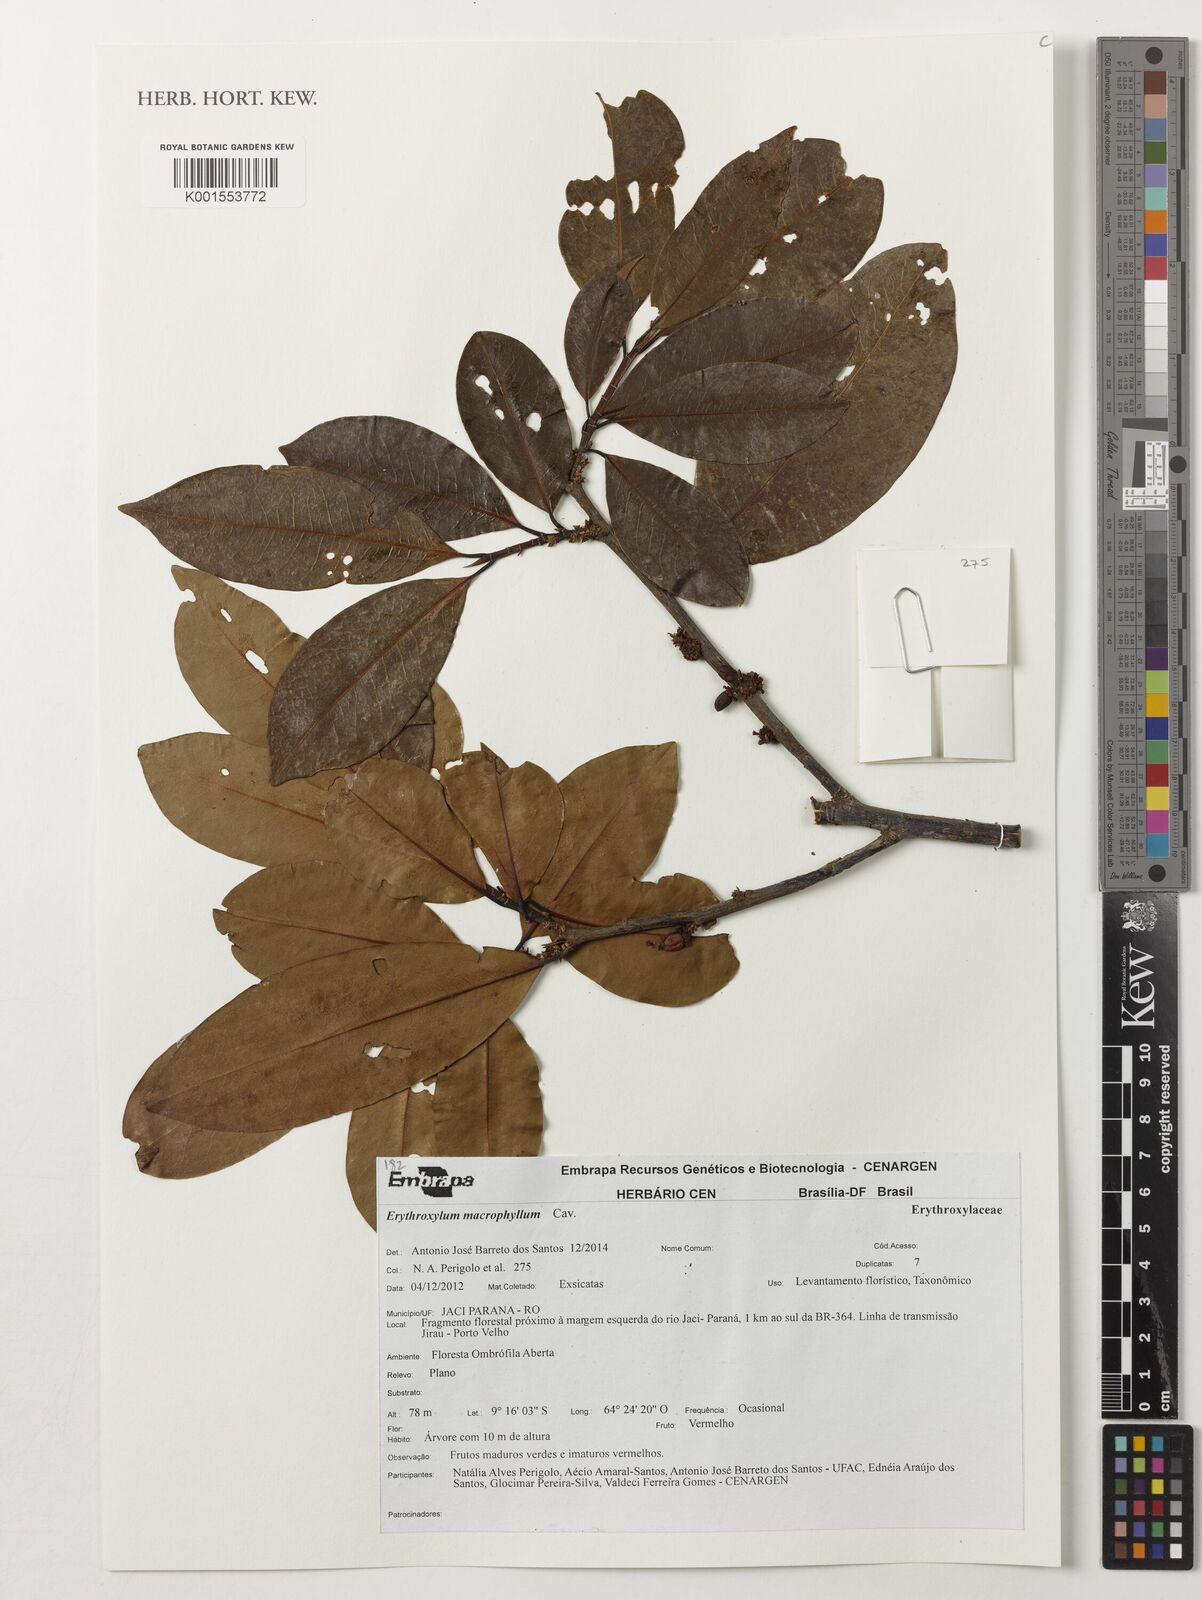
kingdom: Plantae
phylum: Tracheophyta
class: Magnoliopsida
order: Malpighiales
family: Erythroxylaceae
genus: Erythroxylum
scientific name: Erythroxylum macrophyllum
